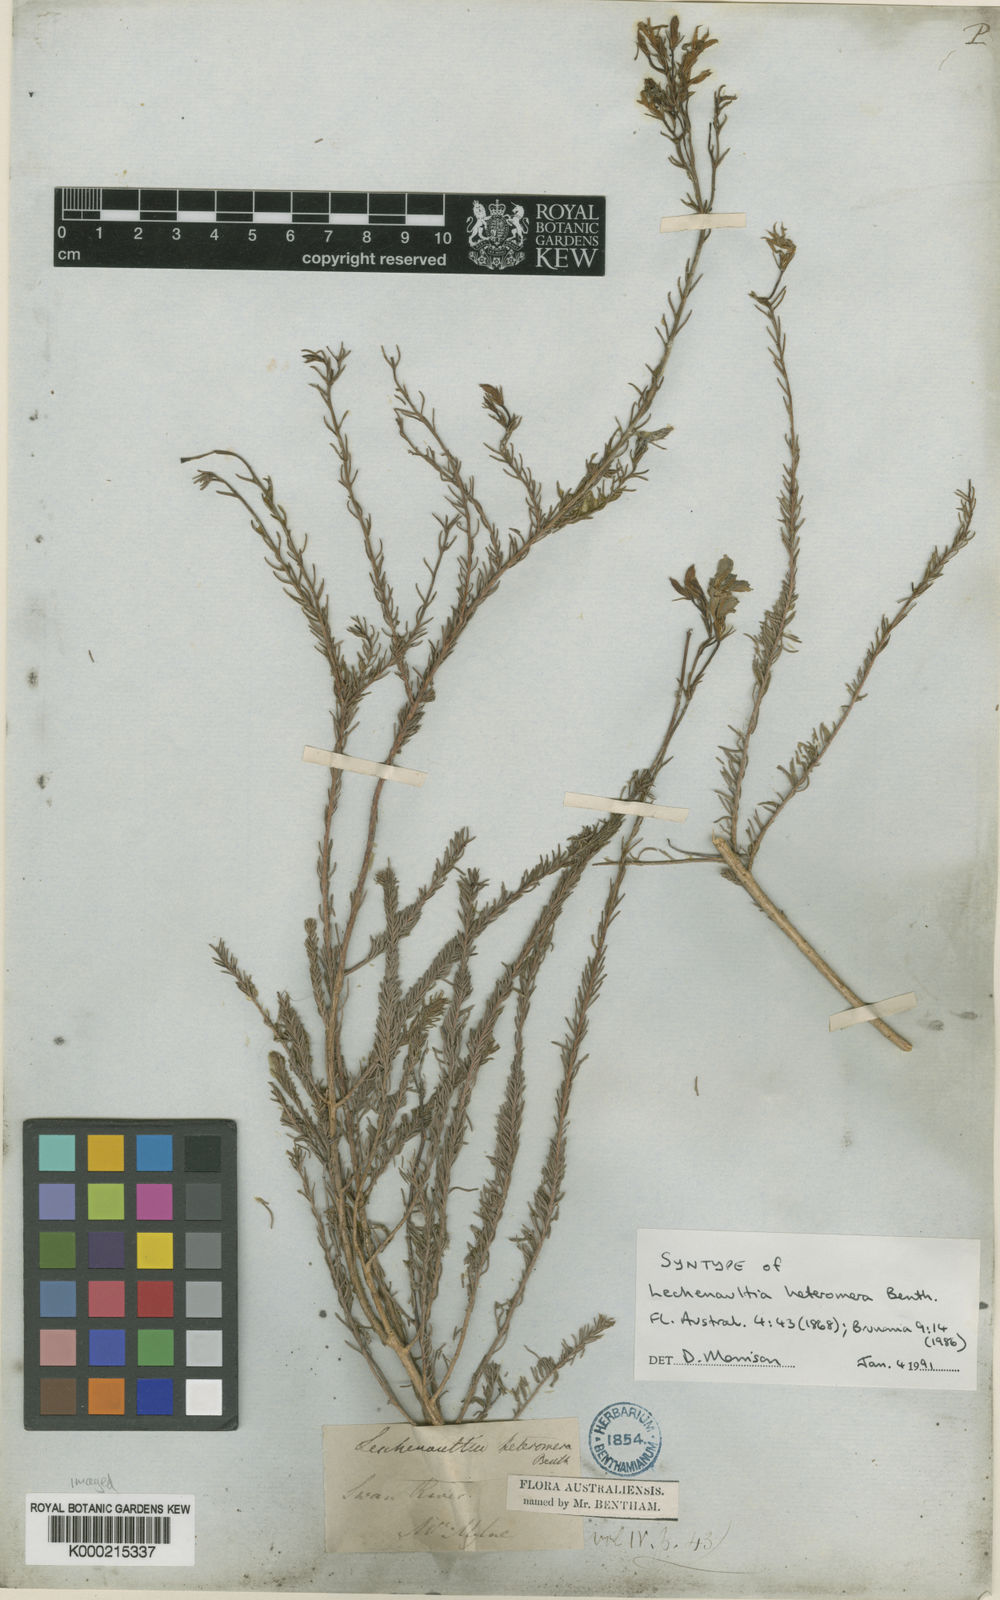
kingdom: Plantae
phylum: Tracheophyta
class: Magnoliopsida
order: Asterales
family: Goodeniaceae
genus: Leschenaultia
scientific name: Leschenaultia heteromera
